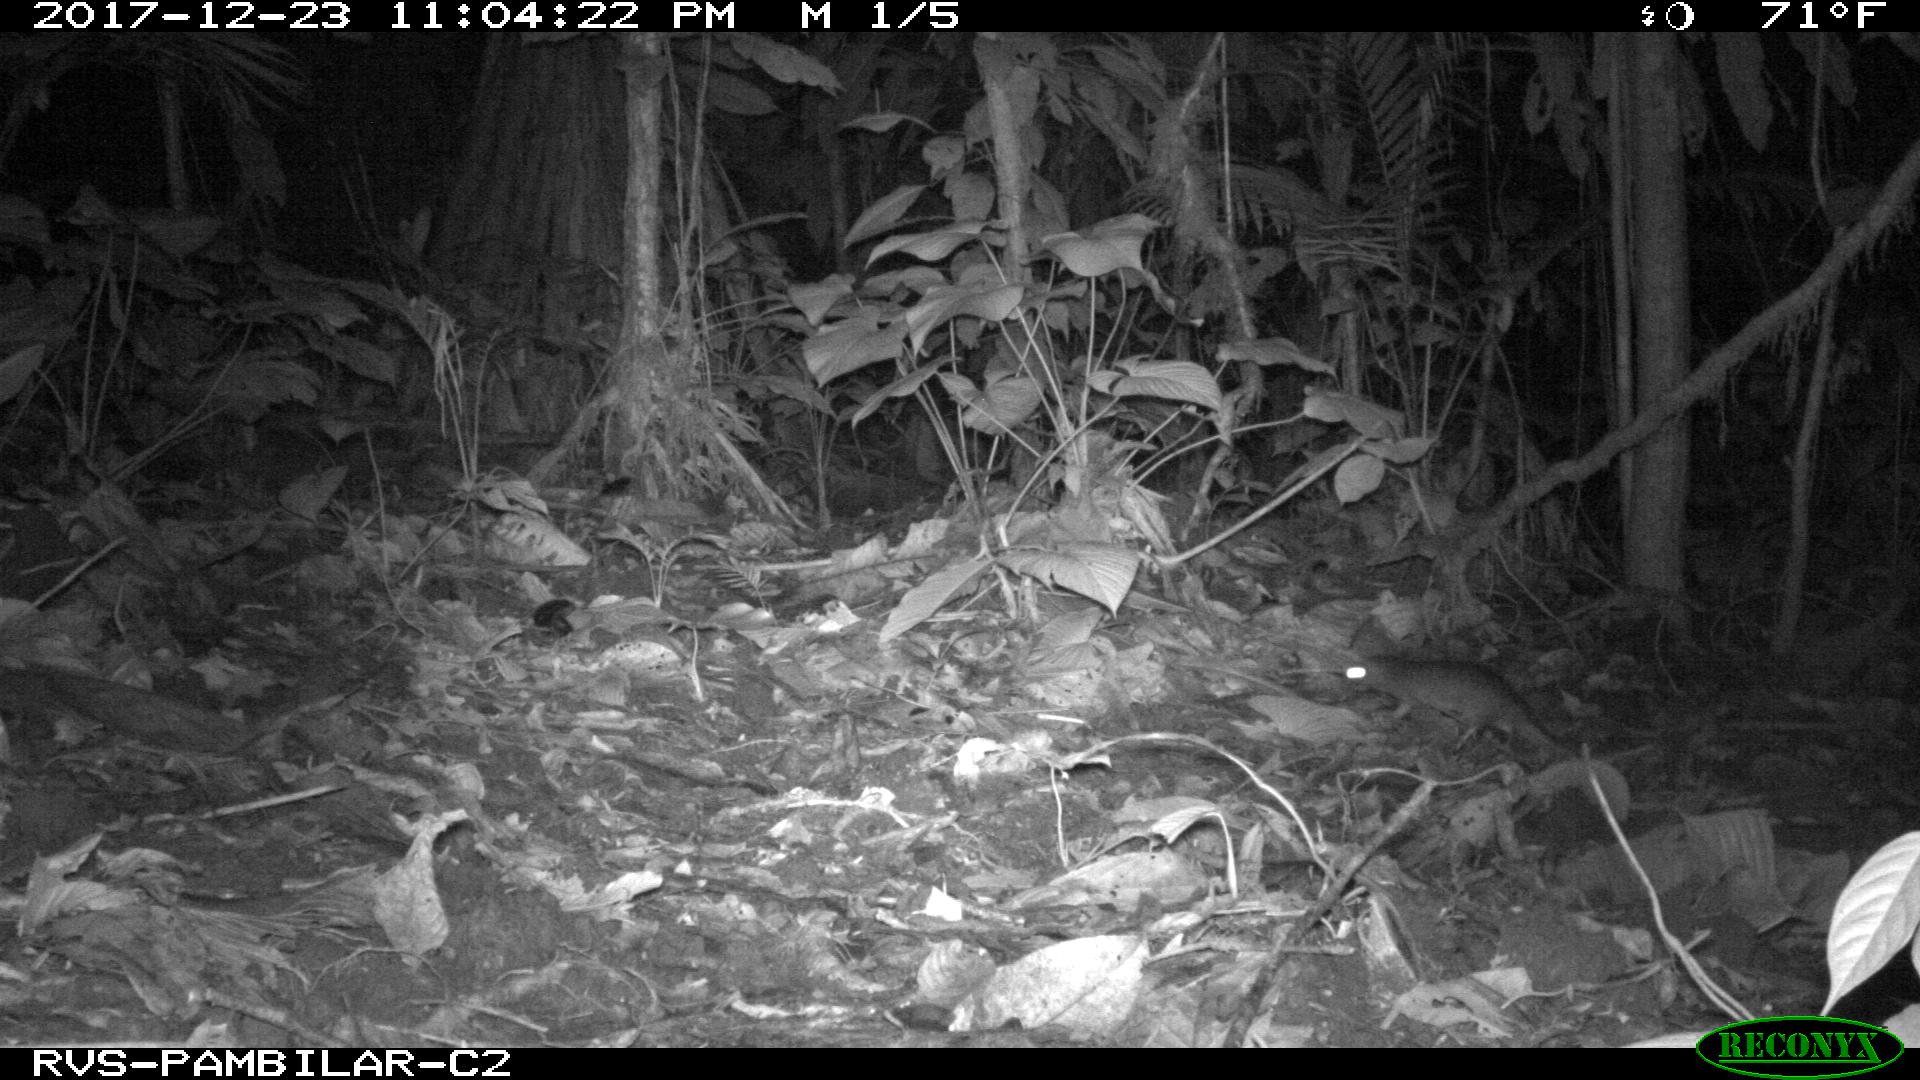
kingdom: Animalia
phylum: Chordata
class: Mammalia
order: Rodentia
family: Echimyidae
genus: Proechimys
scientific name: Proechimys
